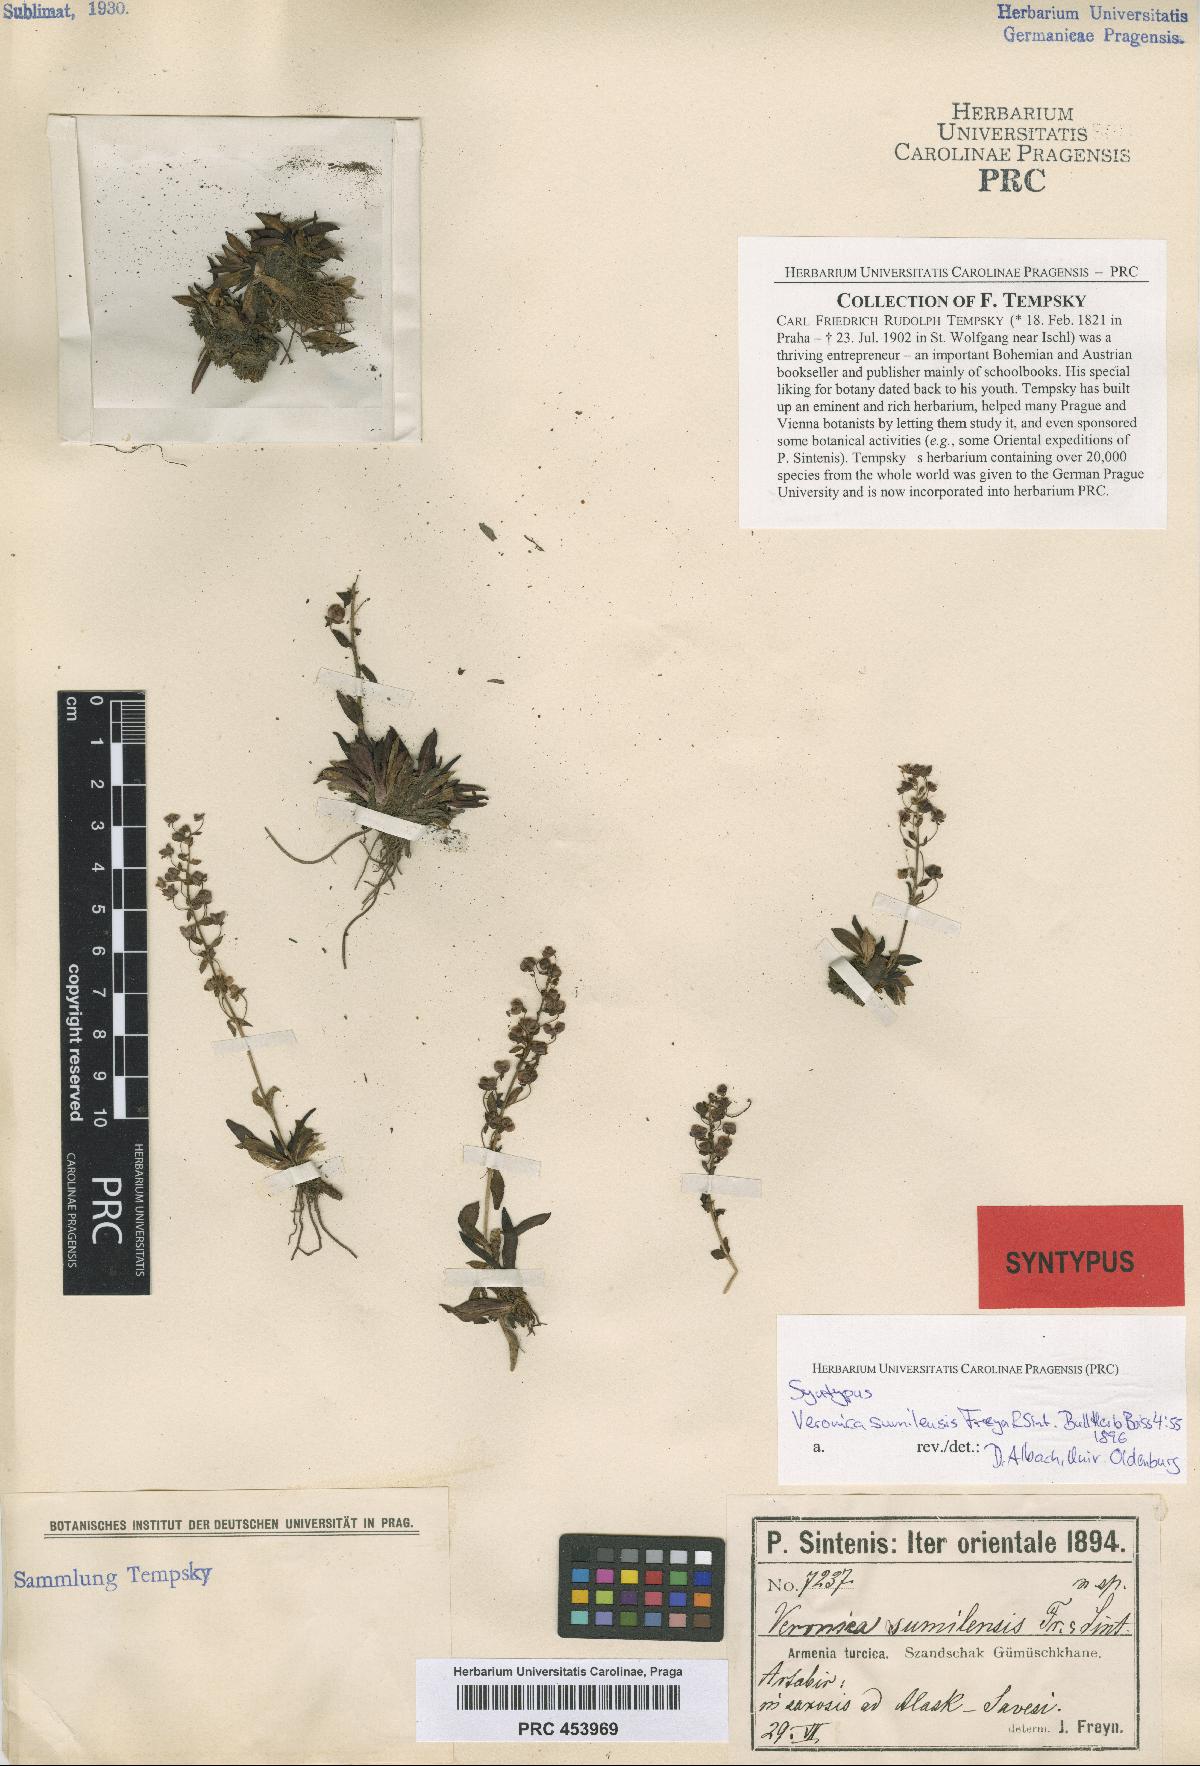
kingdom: Plantae
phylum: Tracheophyta
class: Magnoliopsida
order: Lamiales
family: Plantaginaceae
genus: Veronica
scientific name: Veronica gentianoides
